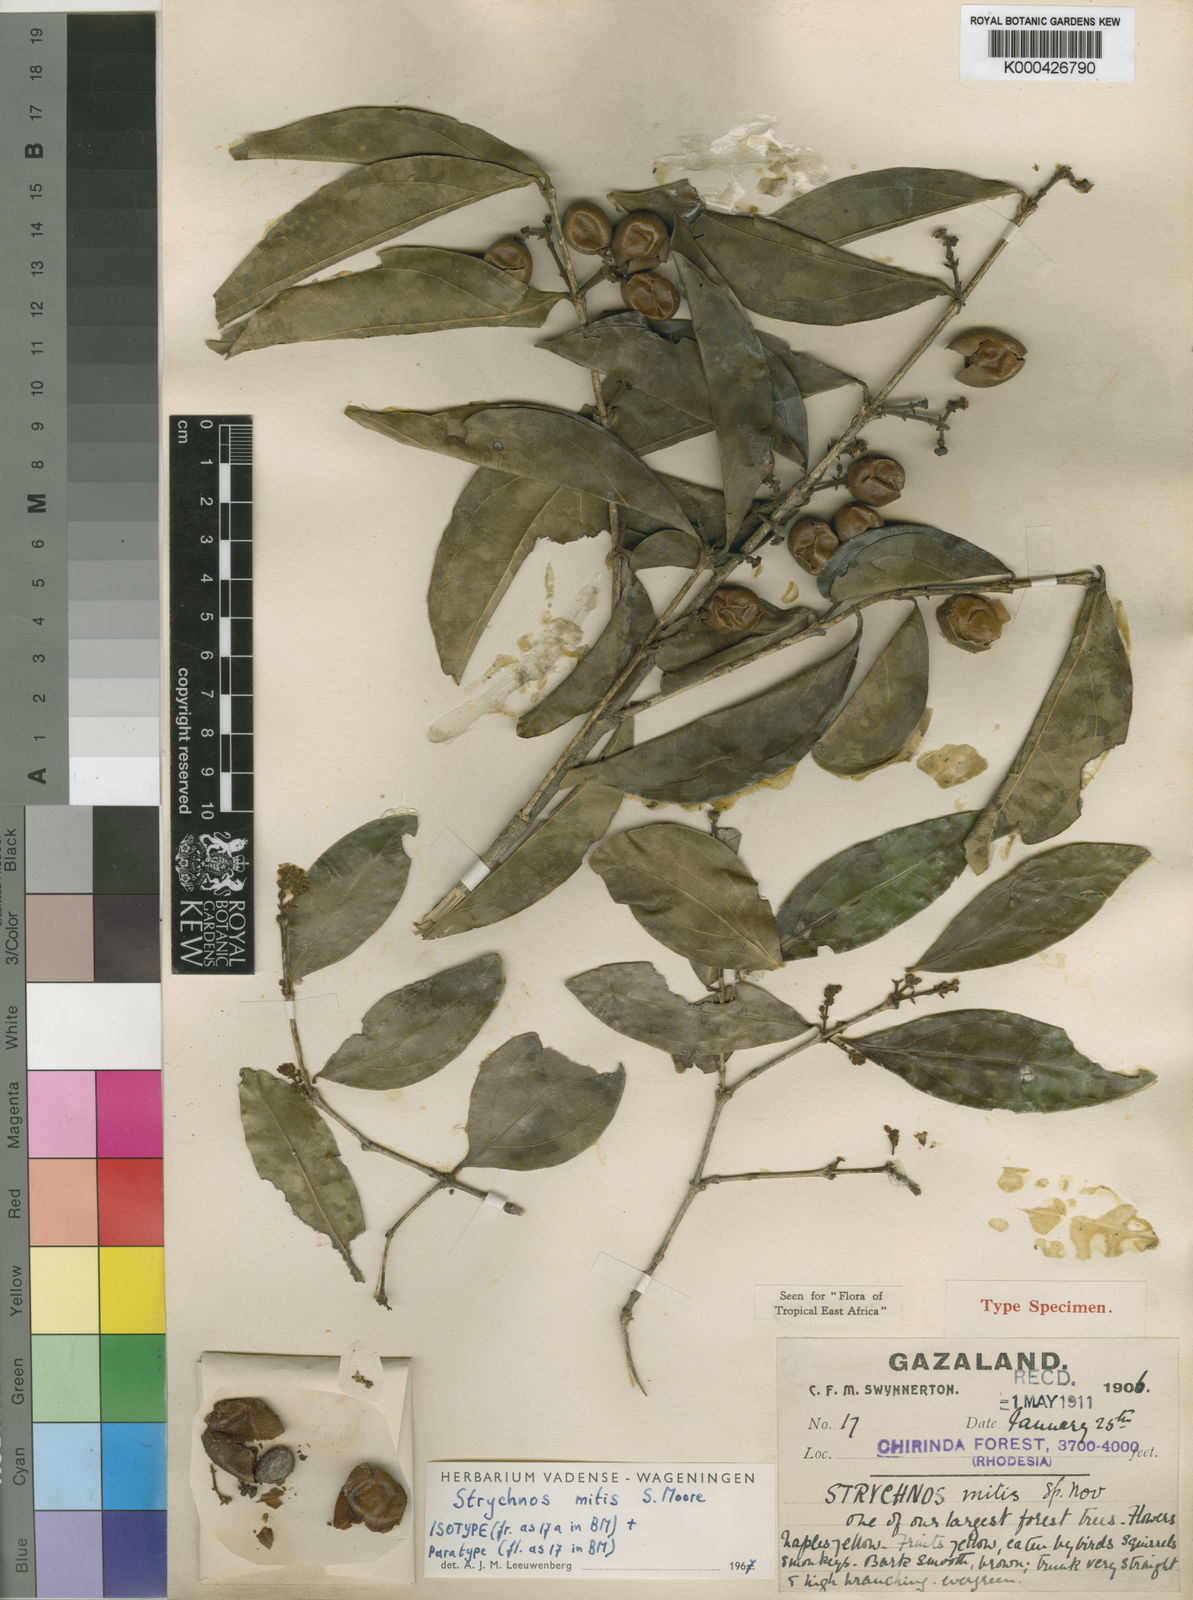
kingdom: Plantae
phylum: Tracheophyta
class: Magnoliopsida
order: Gentianales
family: Loganiaceae
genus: Strychnos
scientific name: Strychnos mitis
